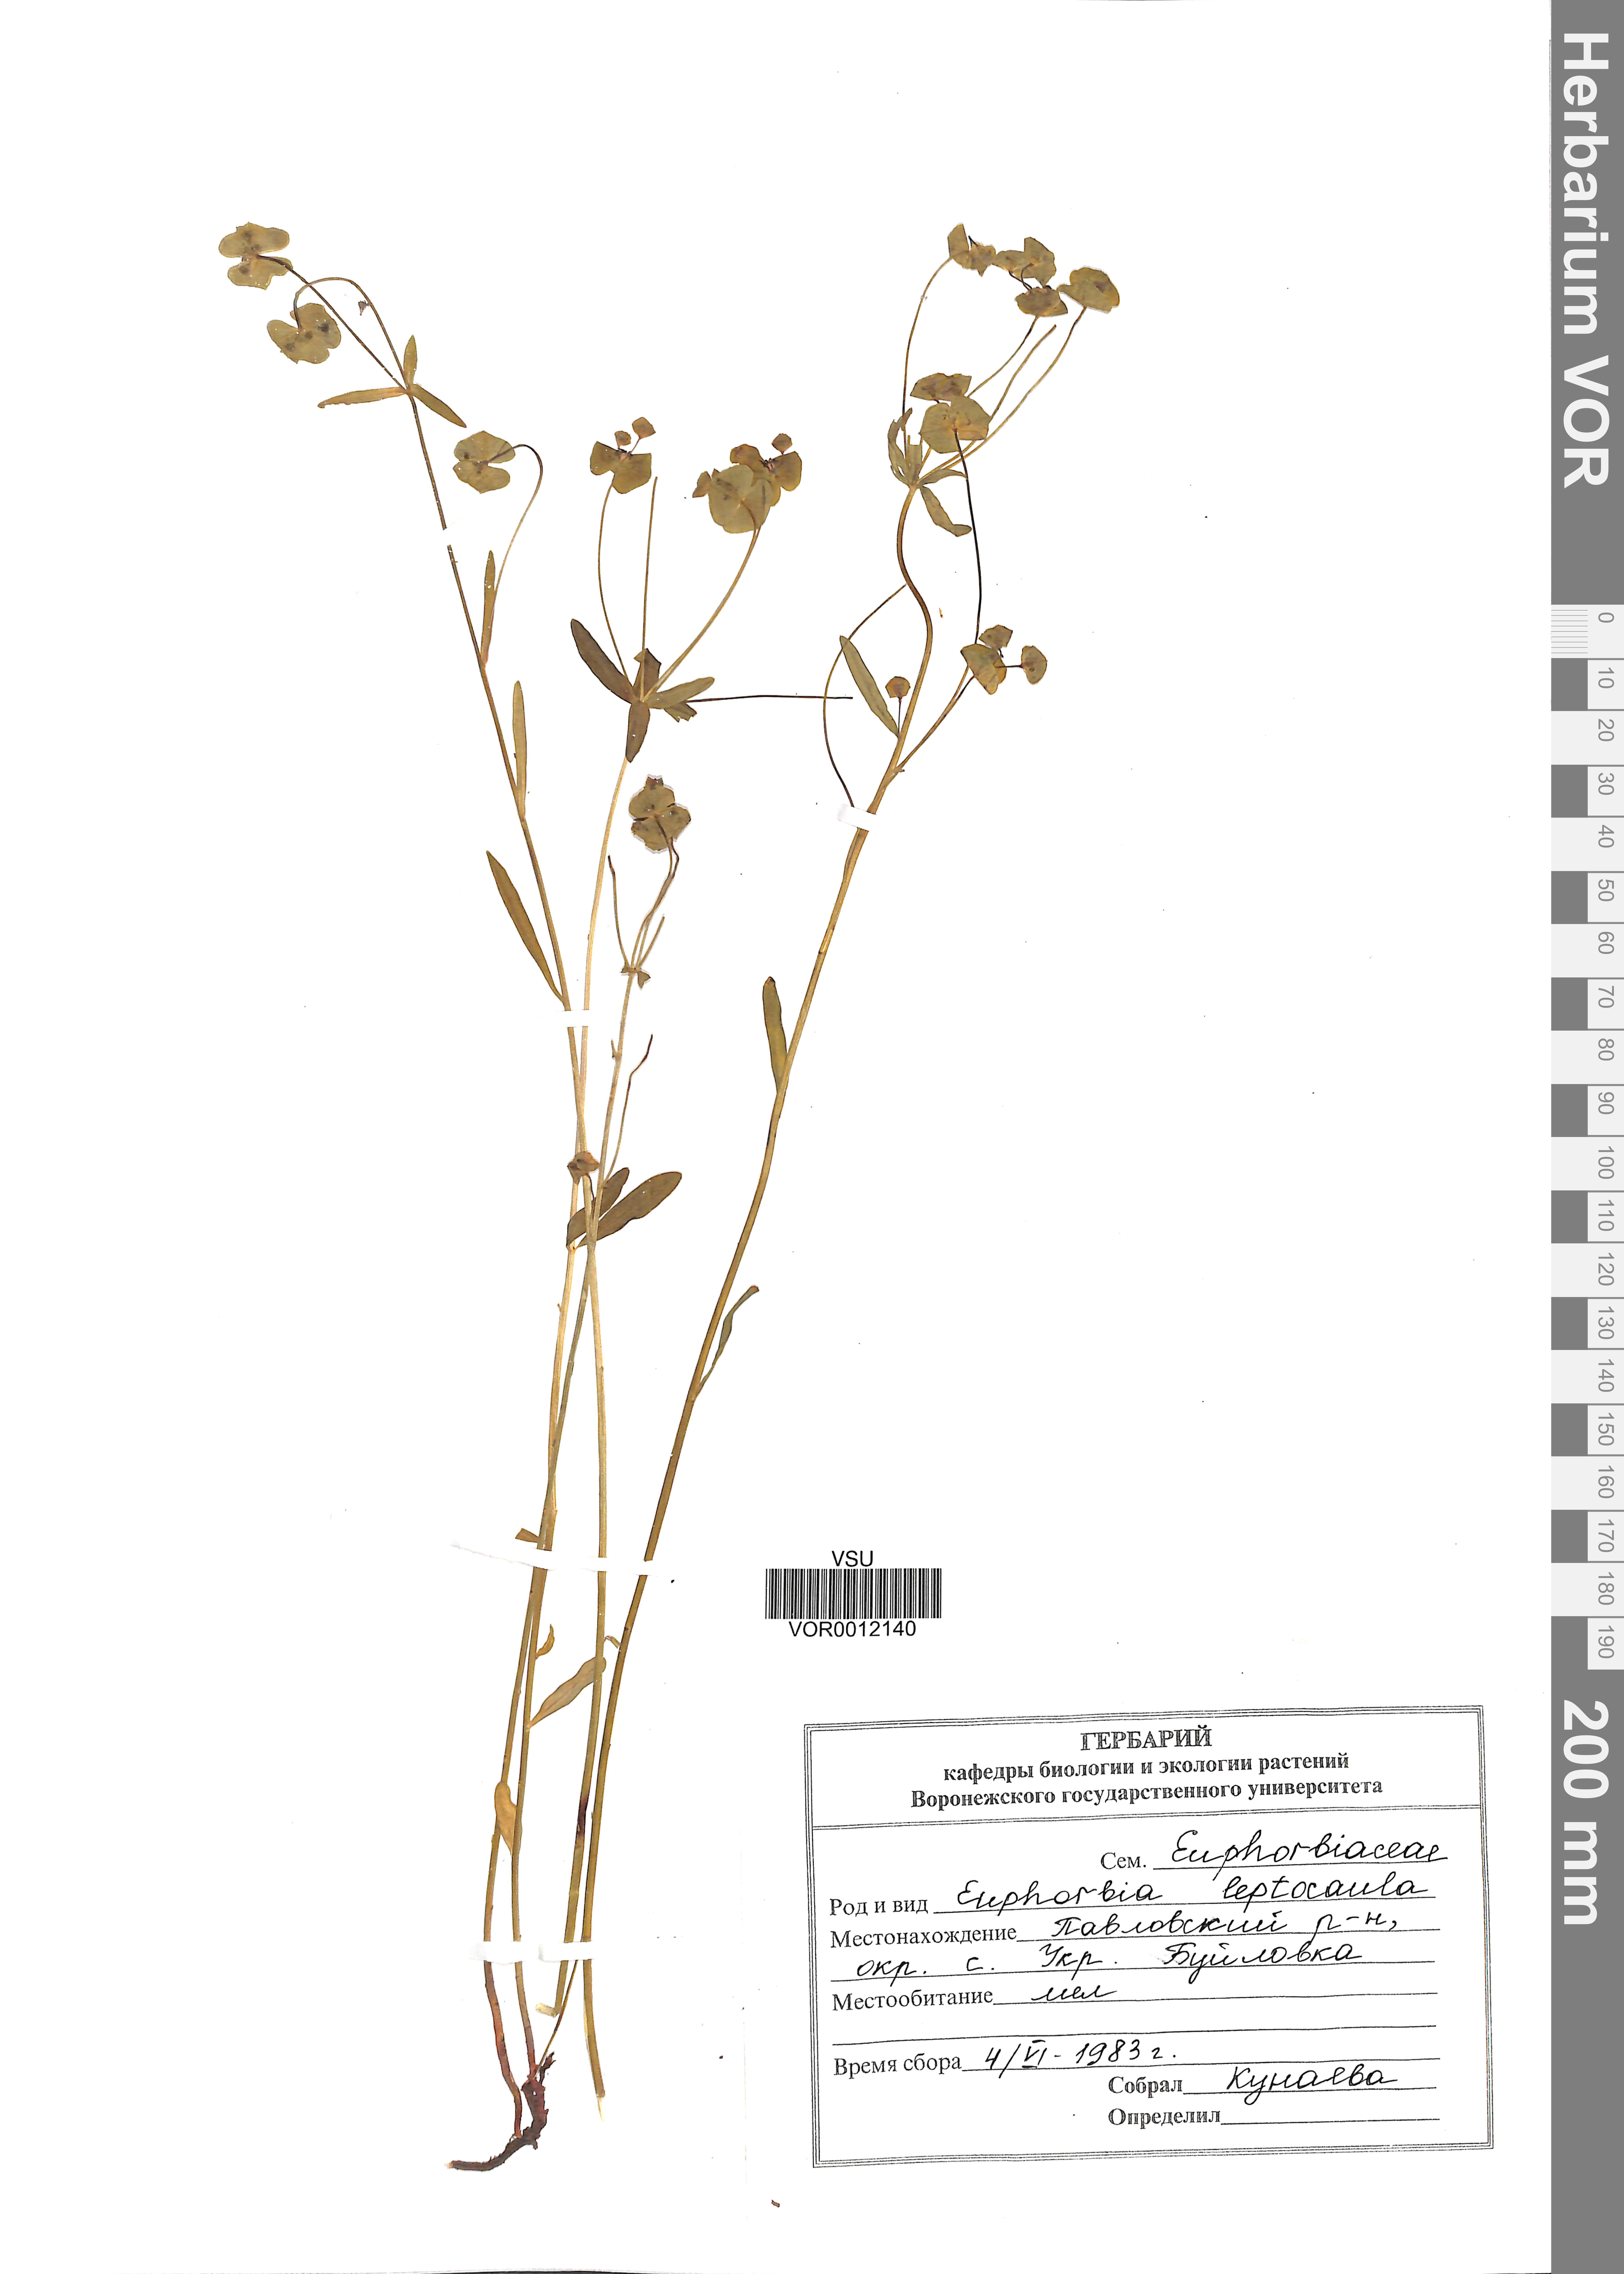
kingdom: Plantae
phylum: Tracheophyta
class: Magnoliopsida
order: Malpighiales
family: Euphorbiaceae
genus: Euphorbia
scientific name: Euphorbia leptocaula
